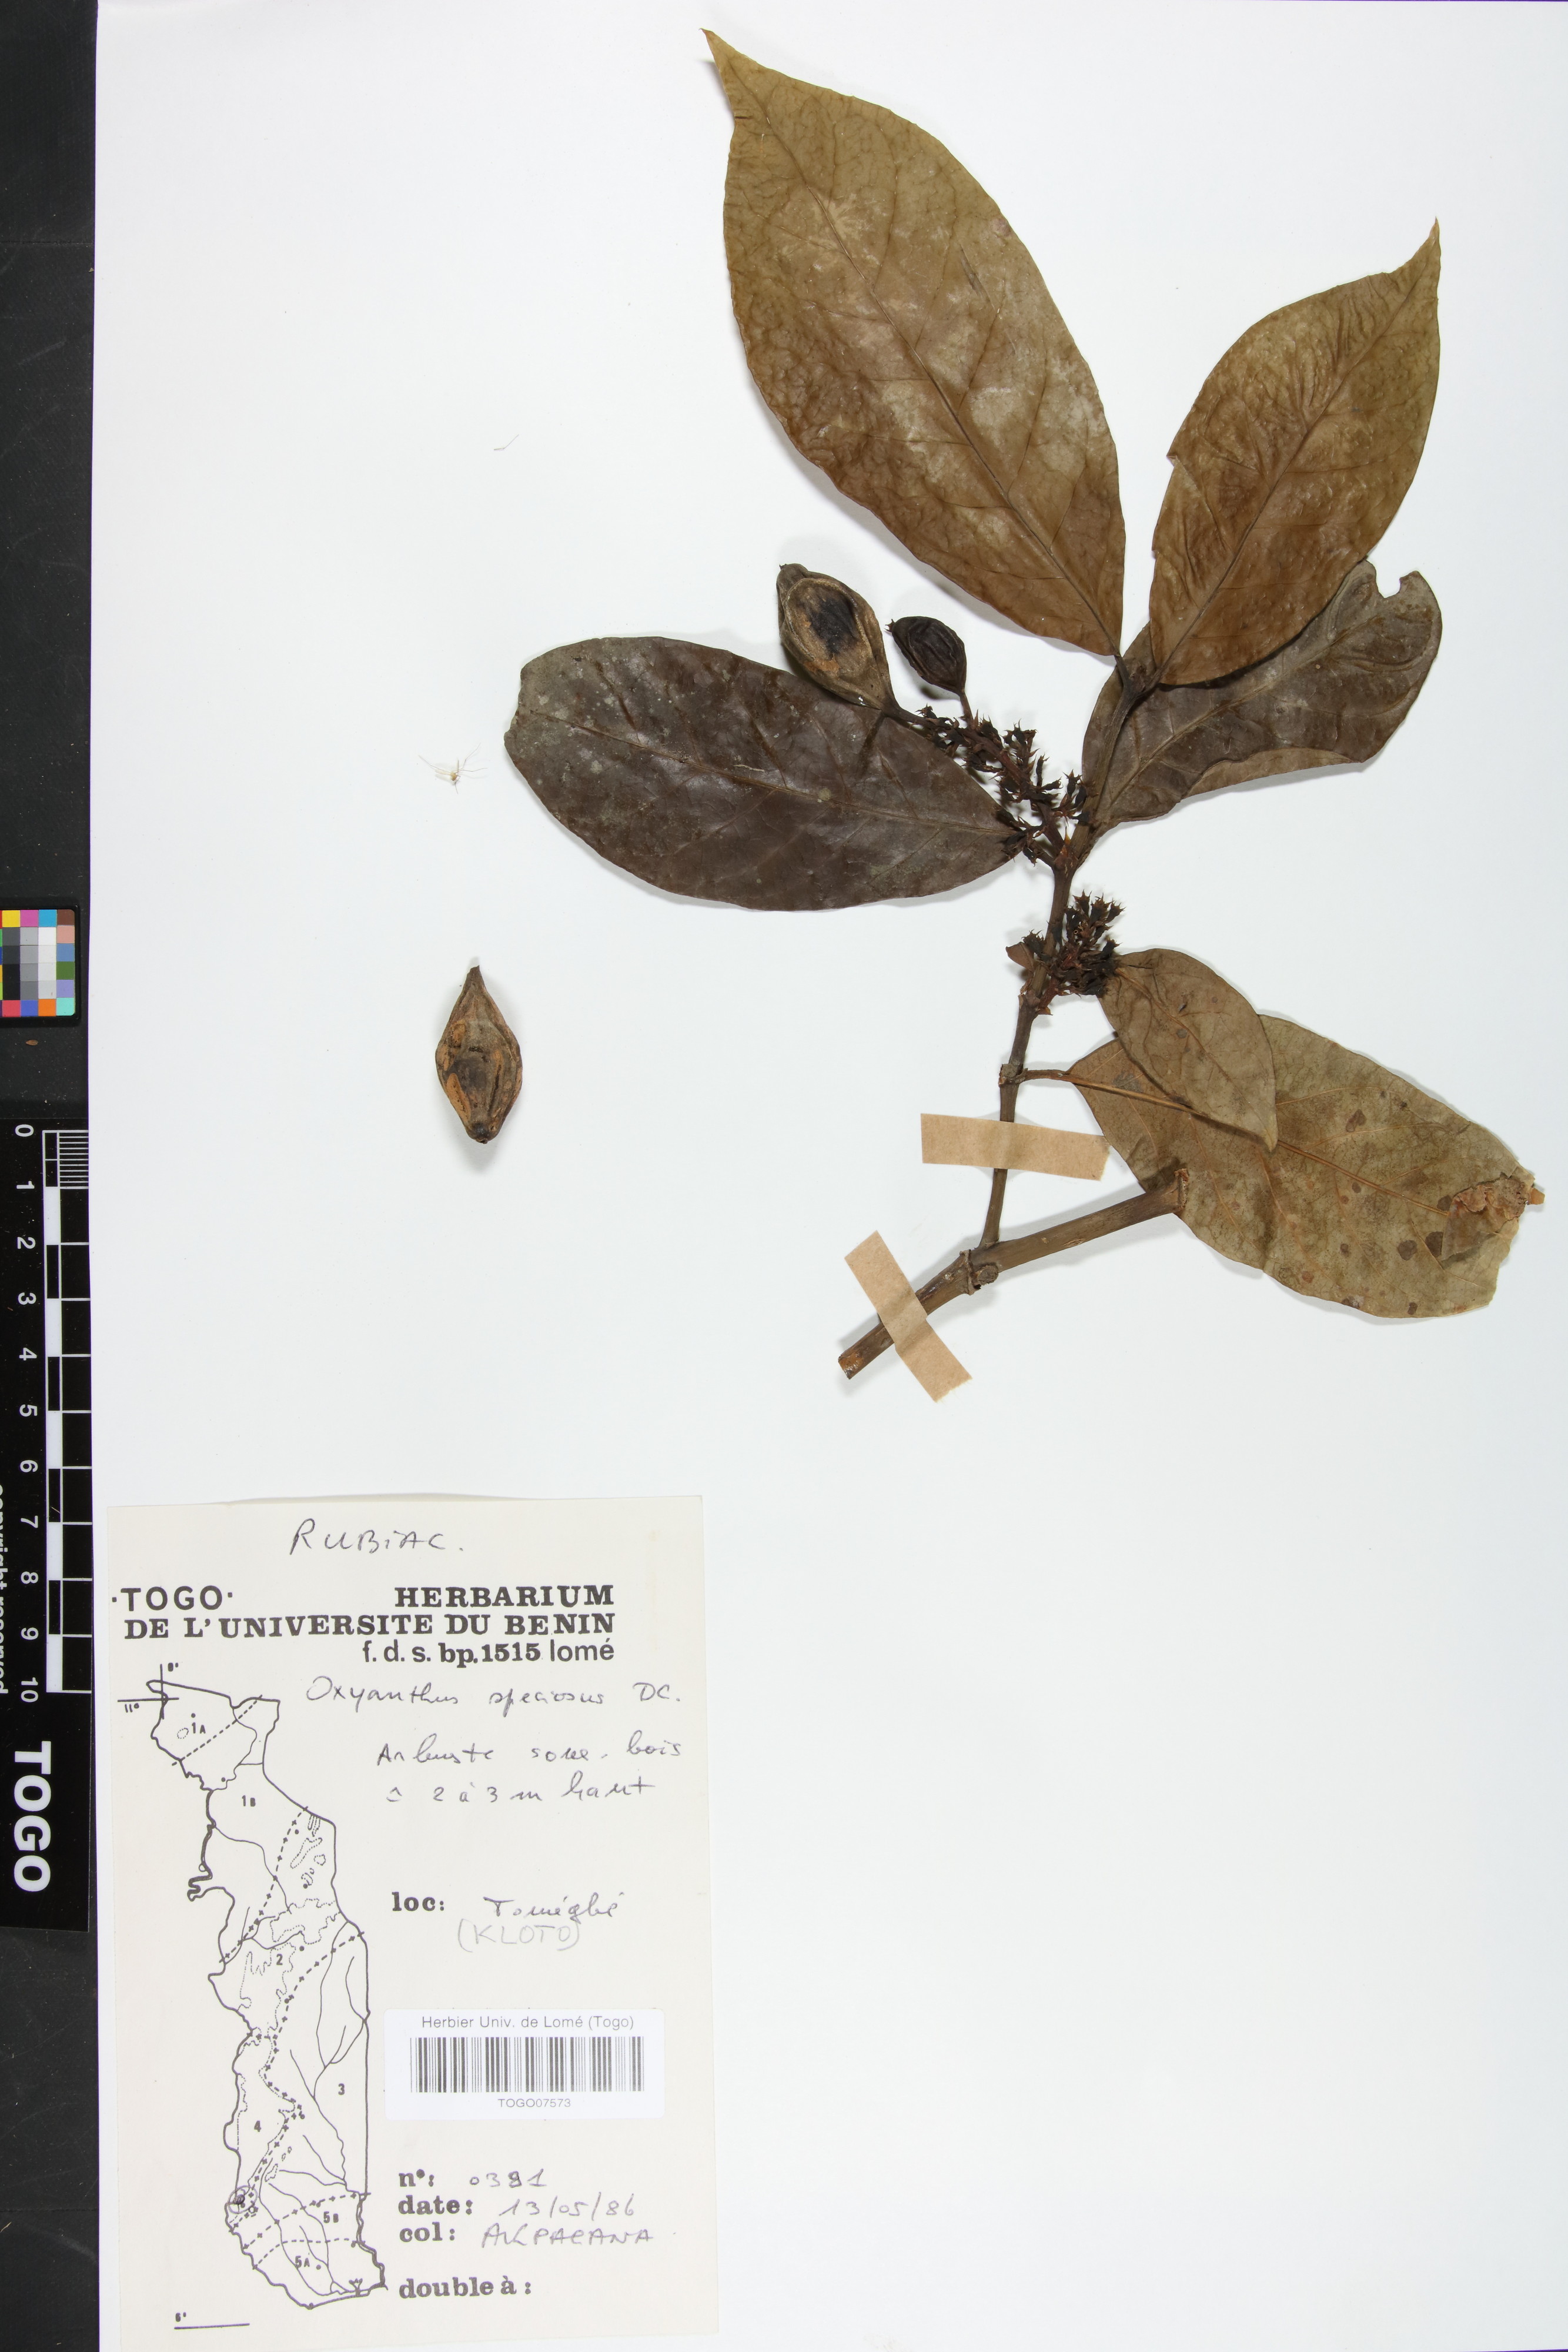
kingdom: Plantae
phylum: Tracheophyta
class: Magnoliopsida
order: Gentianales
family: Rubiaceae
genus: Oxyanthus
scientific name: Oxyanthus speciosus
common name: Whipstick loquat
